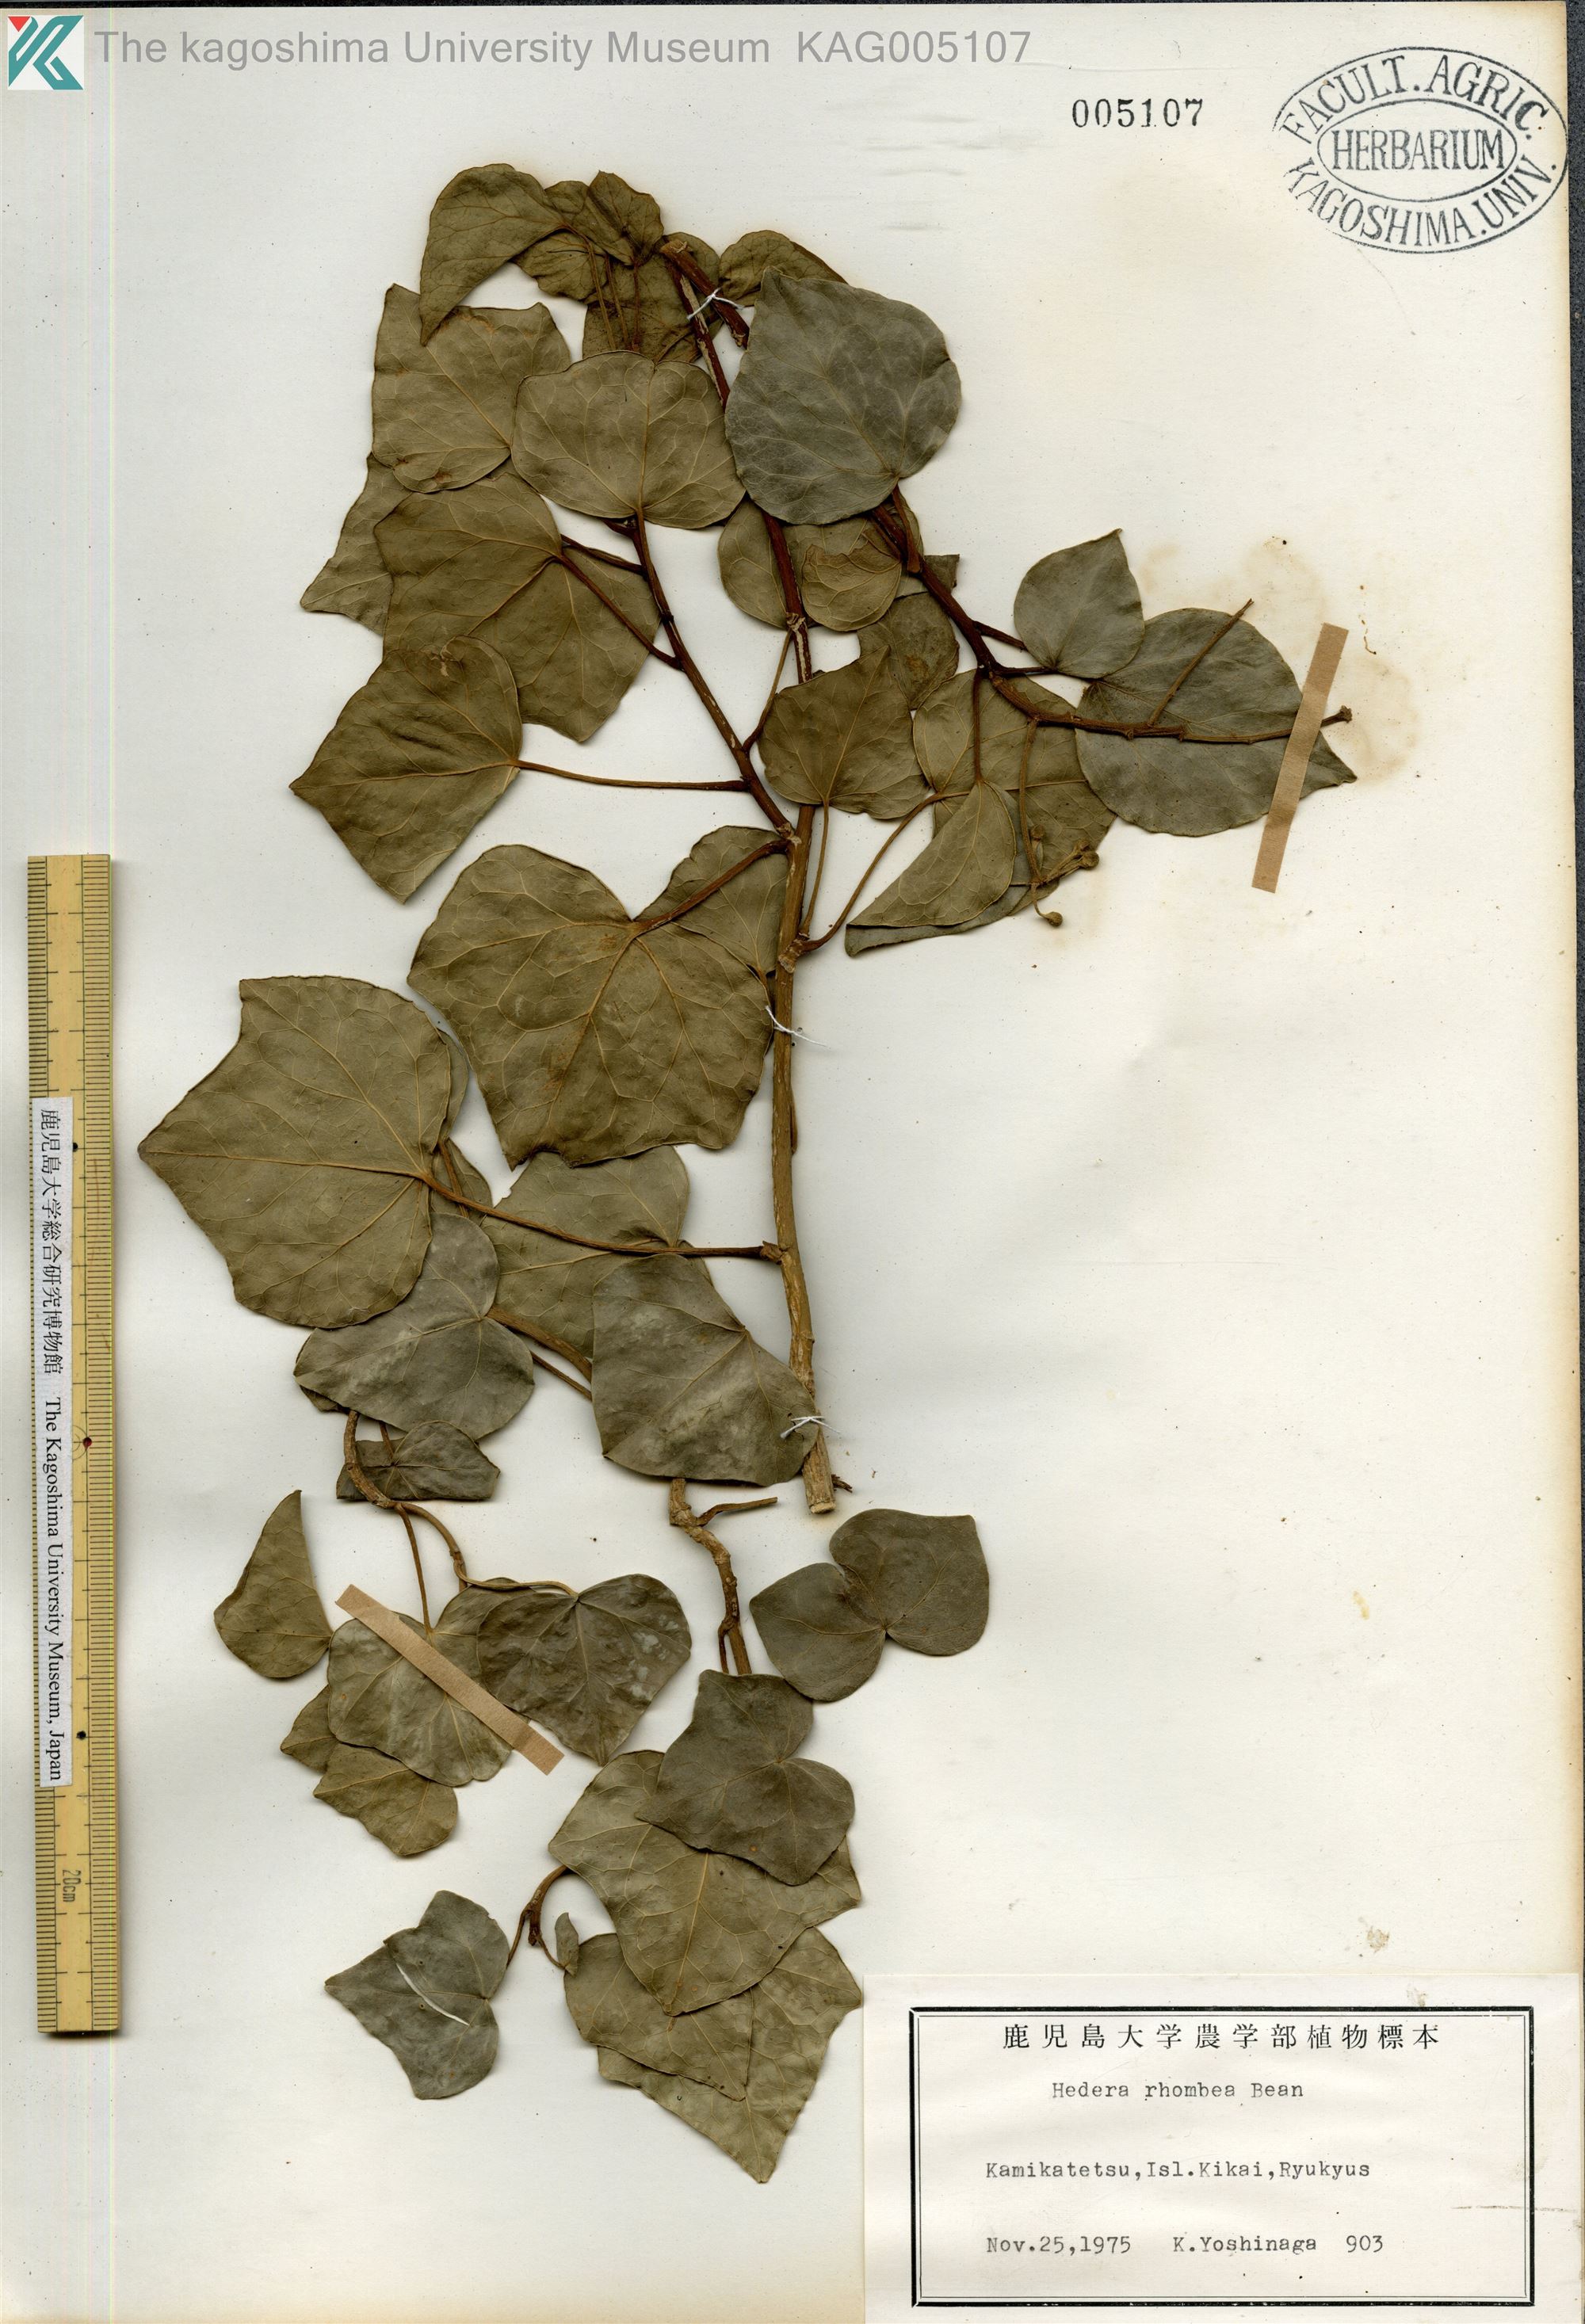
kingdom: Plantae
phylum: Tracheophyta
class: Magnoliopsida
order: Apiales
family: Araliaceae
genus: Hedera
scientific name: Hedera rhombea
